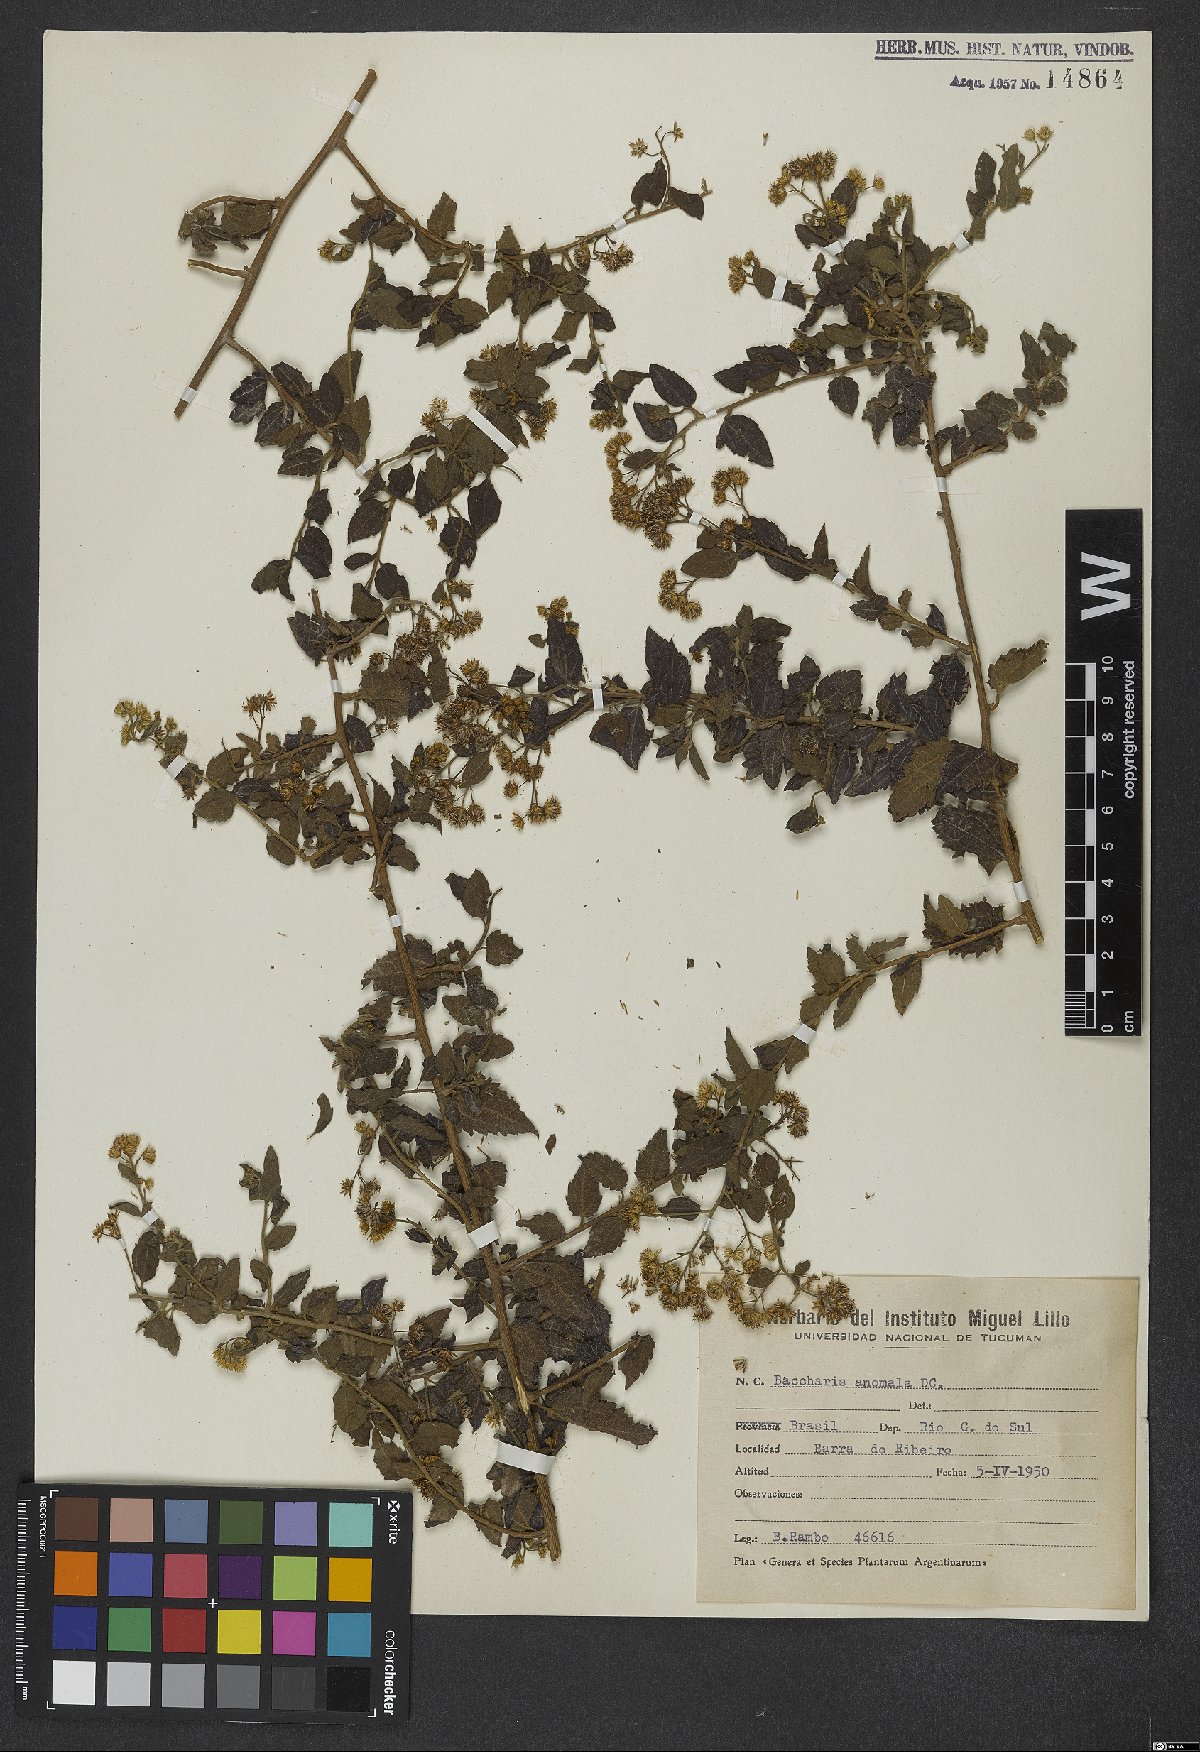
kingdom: Plantae
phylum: Tracheophyta
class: Magnoliopsida
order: Asterales
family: Asteraceae
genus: Baccharis
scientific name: Baccharis anomala
